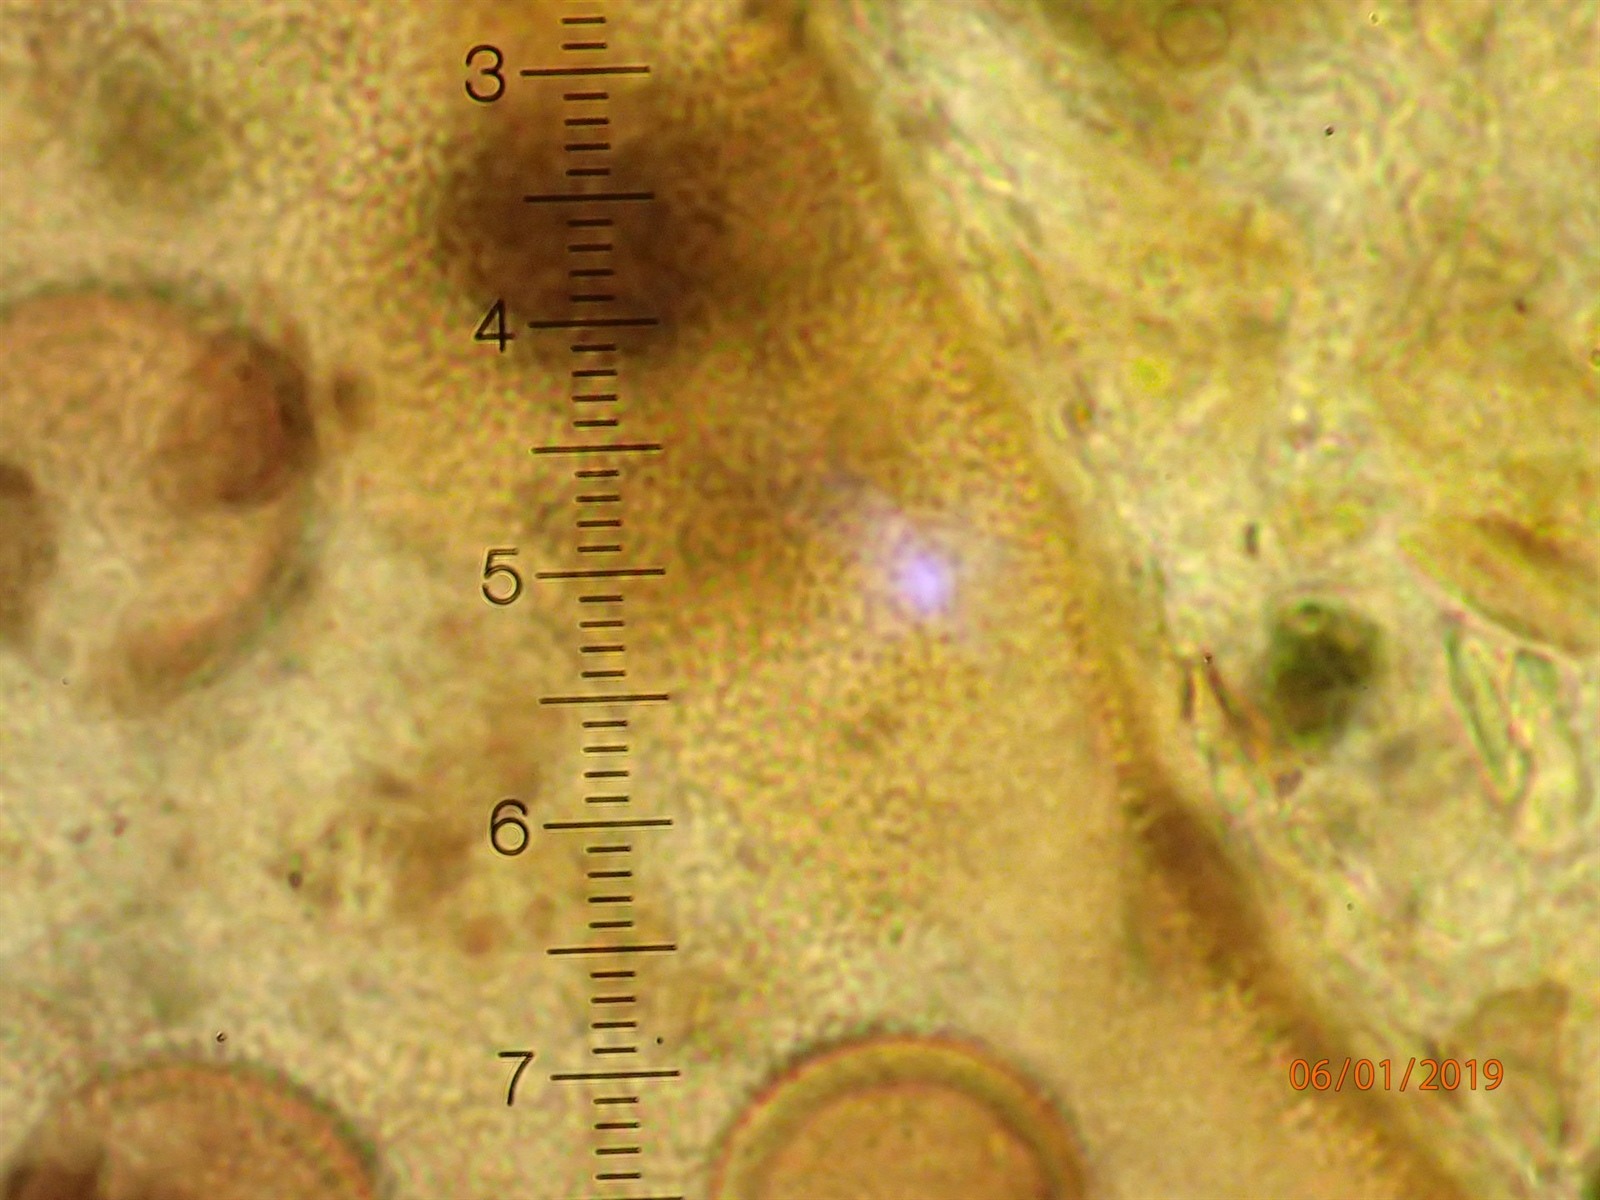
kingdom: Protozoa
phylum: Mycetozoa
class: Myxomycetes
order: Cribrariales
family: Liceaceae
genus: Licea
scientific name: Licea microscopica
